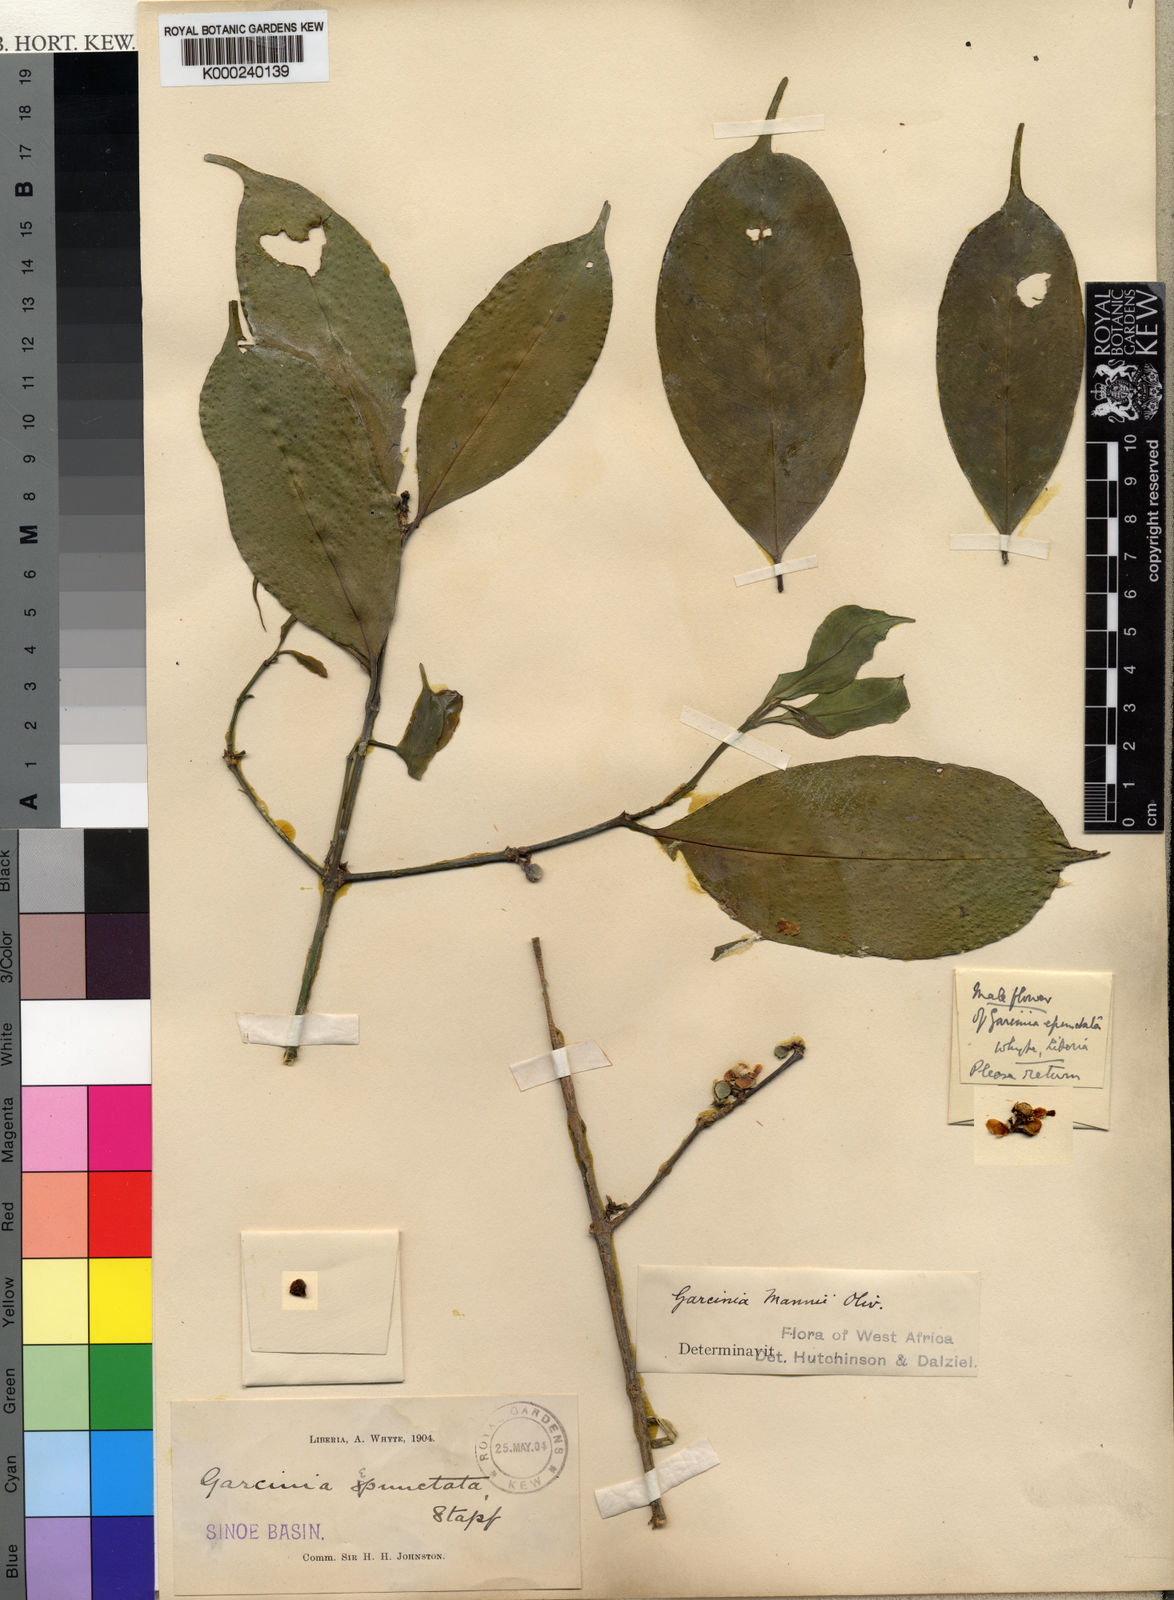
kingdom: Plantae
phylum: Tracheophyta
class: Magnoliopsida
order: Malpighiales
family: Clusiaceae
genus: Garcinia
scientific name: Garcinia epunctata
